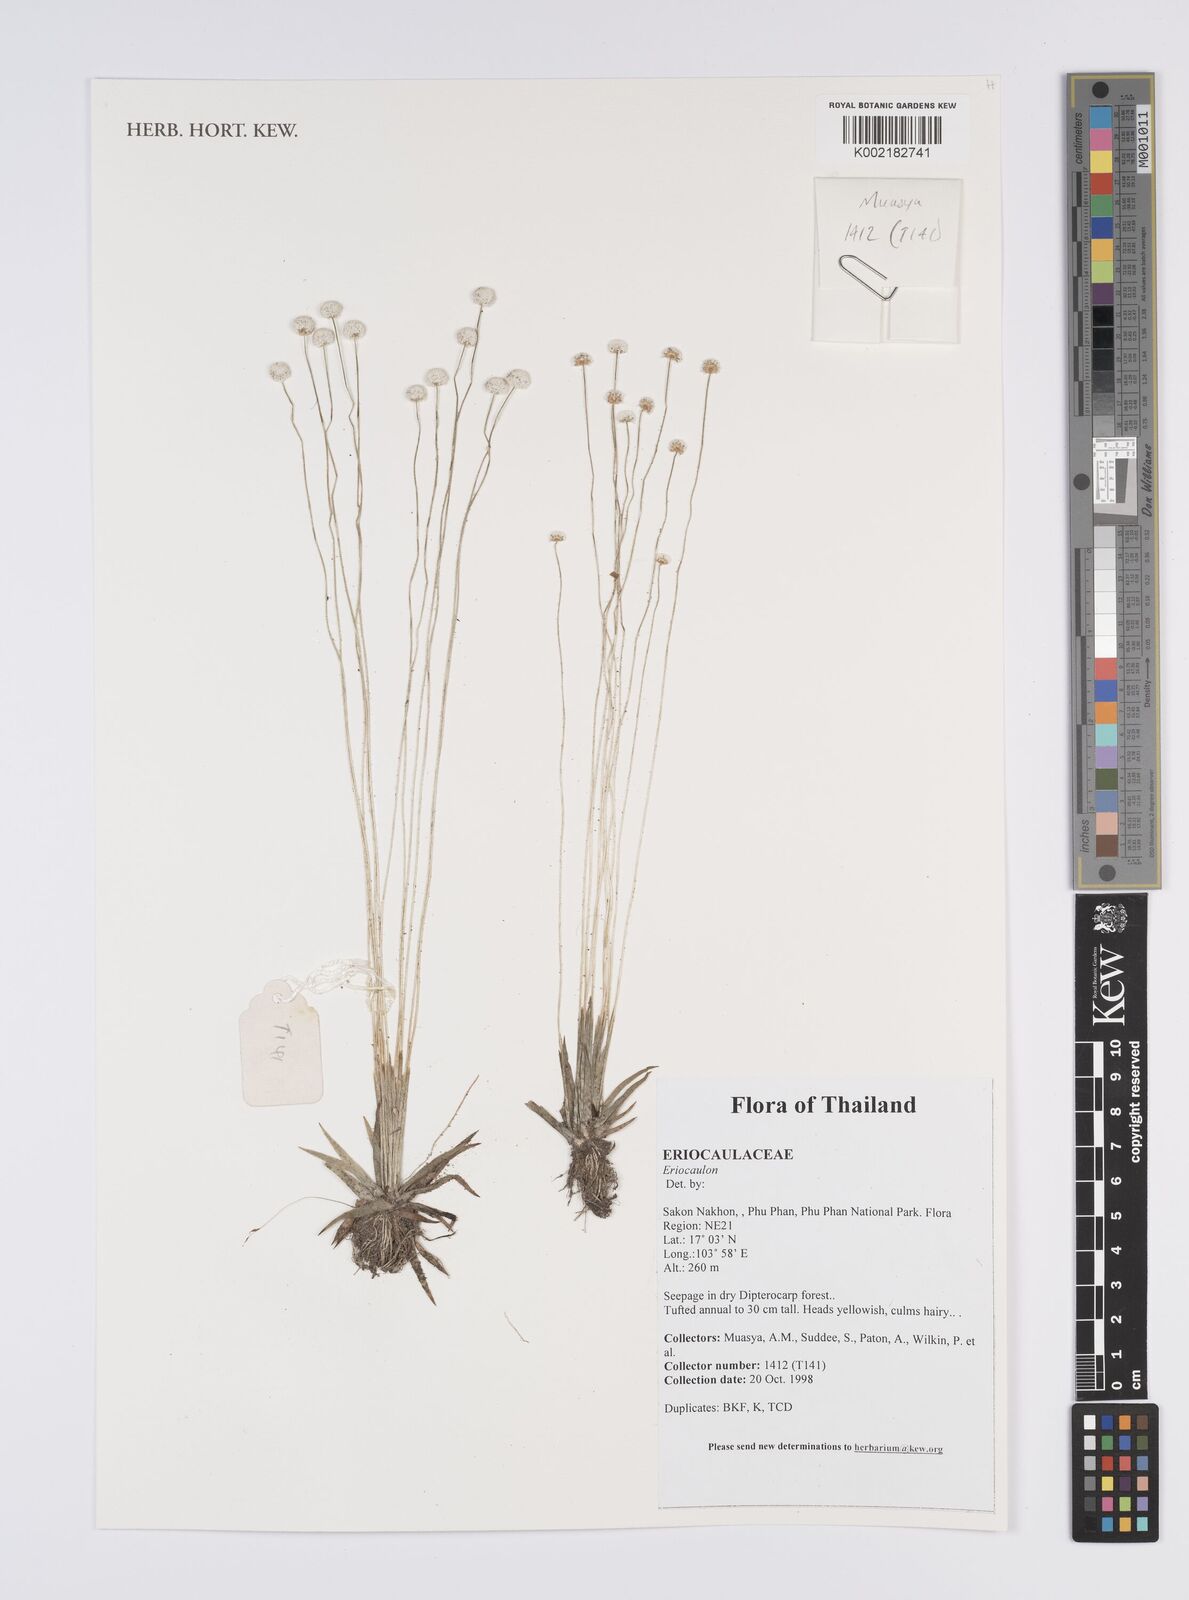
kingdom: Plantae
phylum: Tracheophyta
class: Liliopsida
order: Poales
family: Eriocaulaceae
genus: Eriocaulon
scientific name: Eriocaulon
